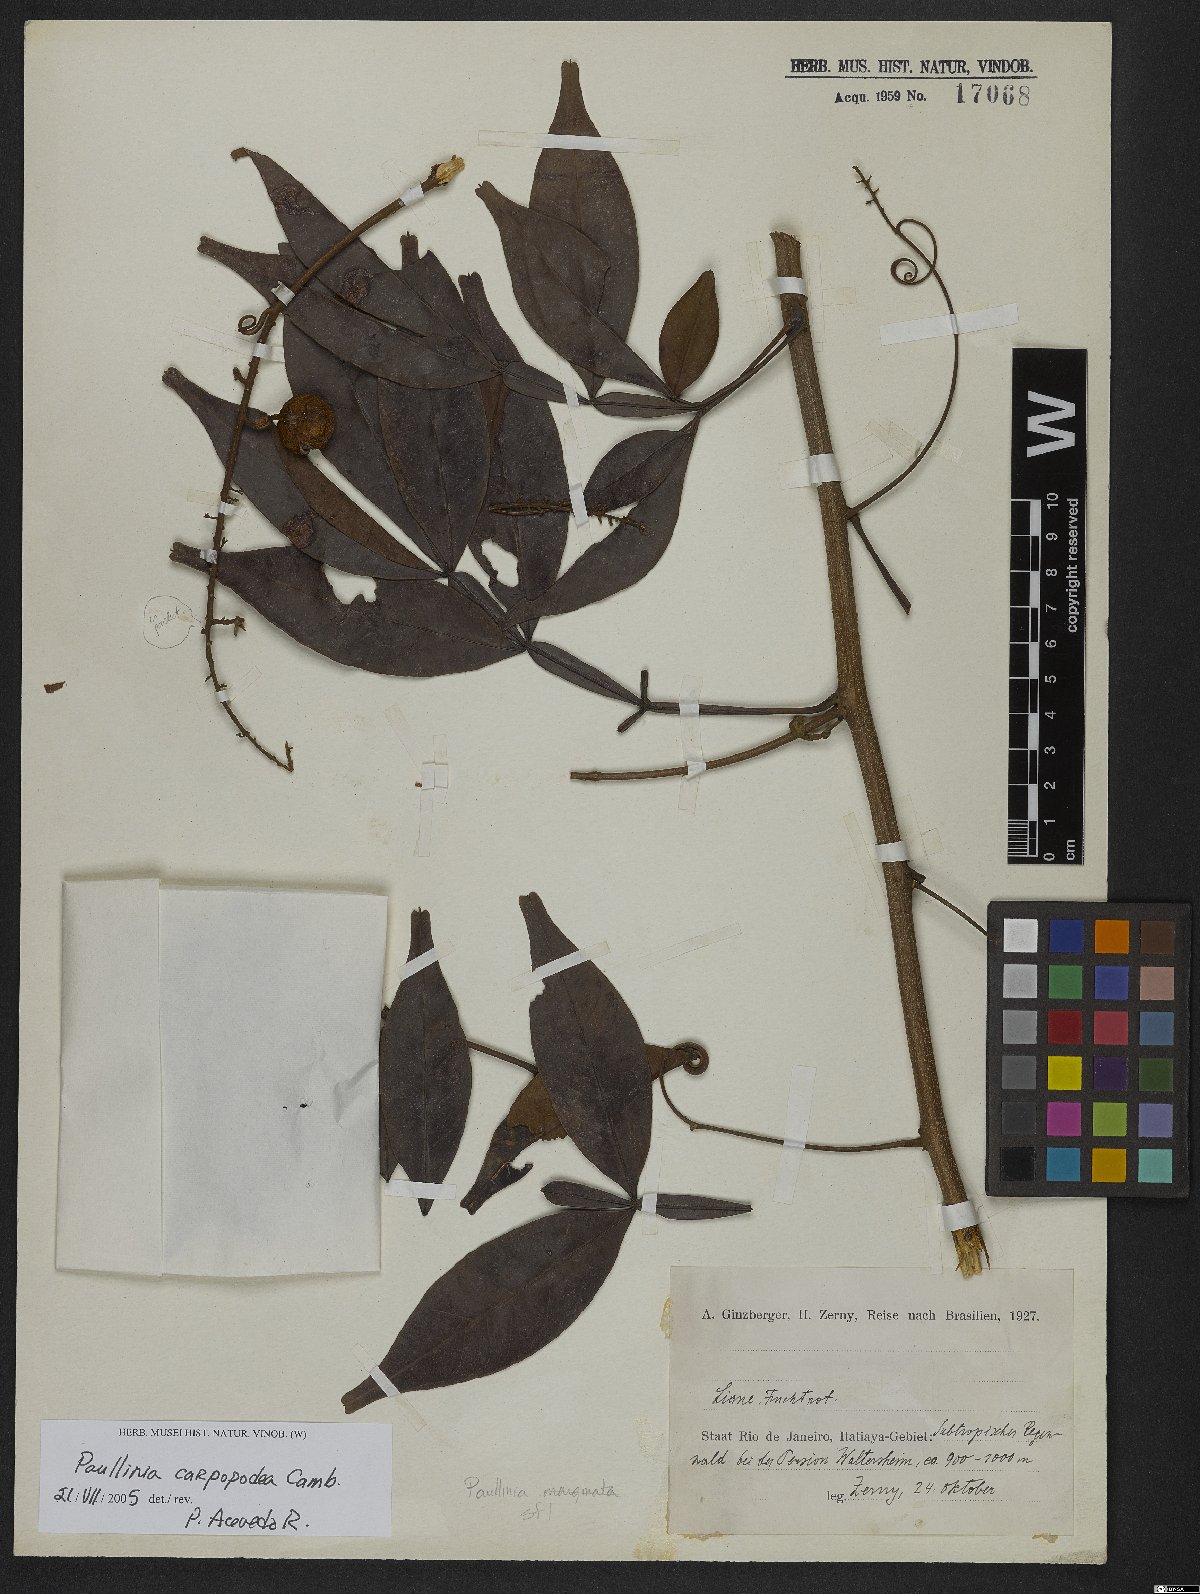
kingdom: Plantae
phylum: Tracheophyta
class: Magnoliopsida
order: Sapindales
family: Sapindaceae
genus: Paullinia
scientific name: Paullinia carpopoda
